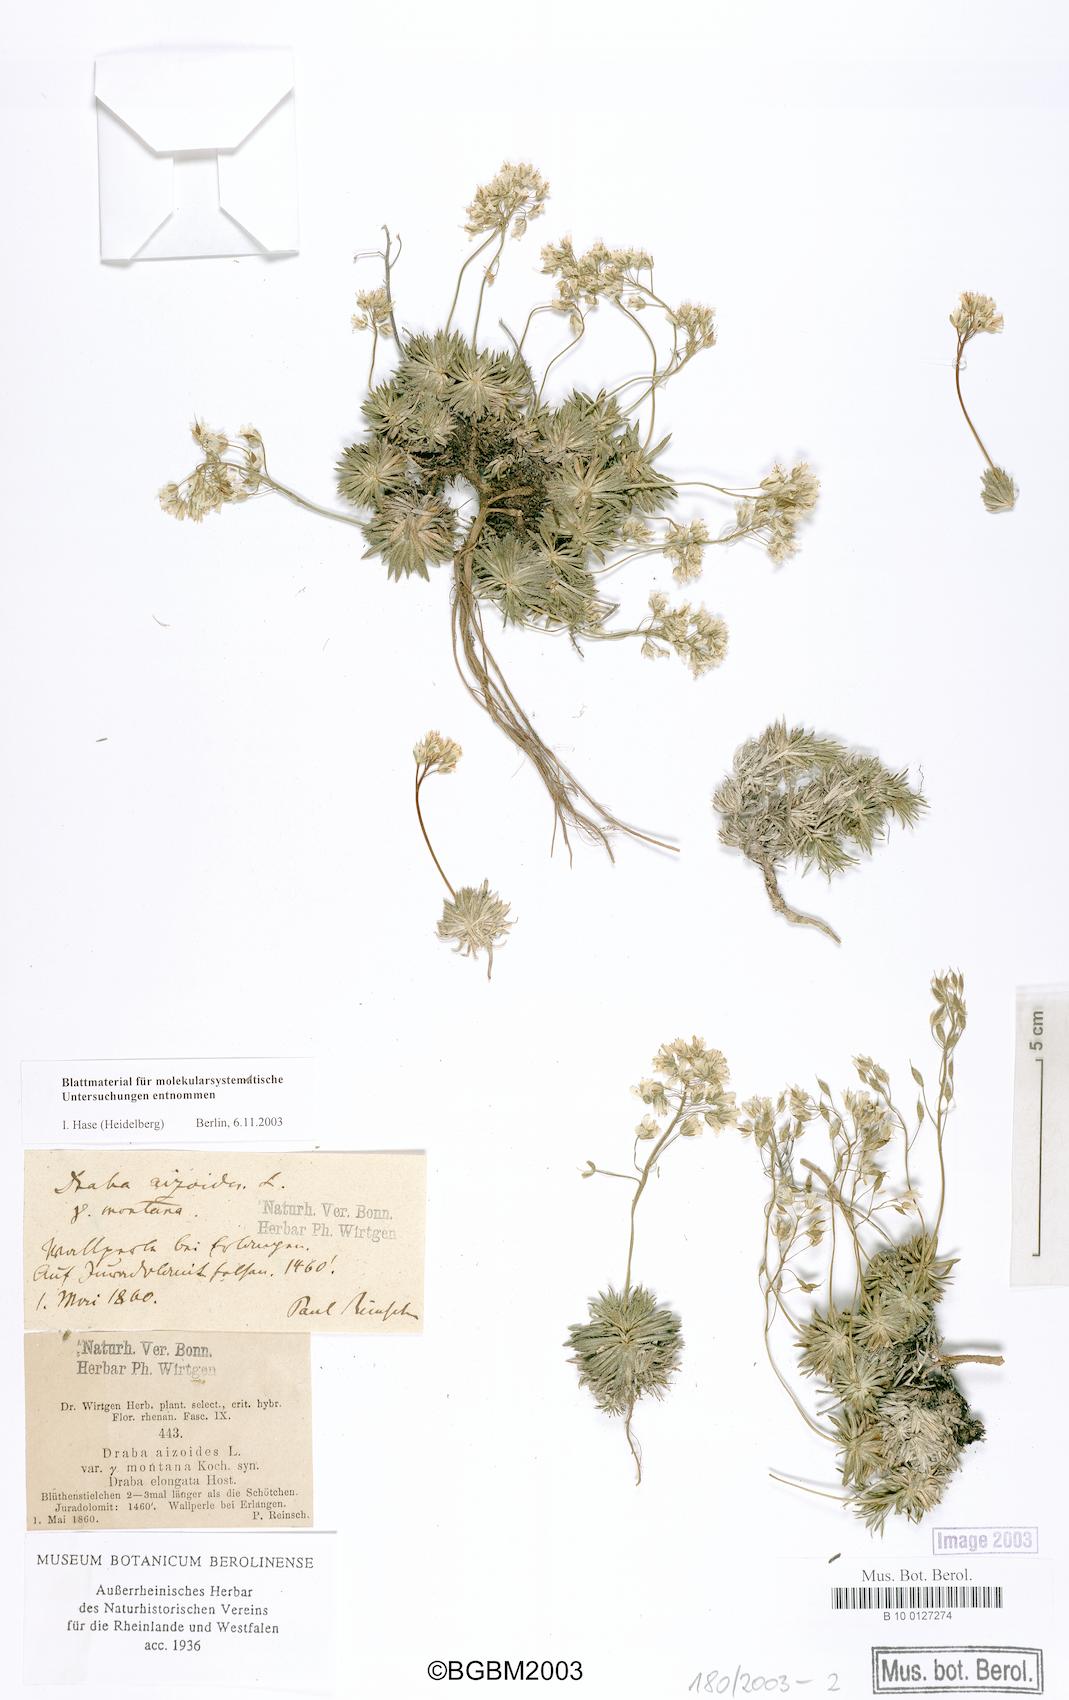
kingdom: Plantae
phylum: Tracheophyta
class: Magnoliopsida
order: Brassicales
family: Brassicaceae
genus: Draba
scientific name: Draba aizoides
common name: Yellow whitlowgrass
